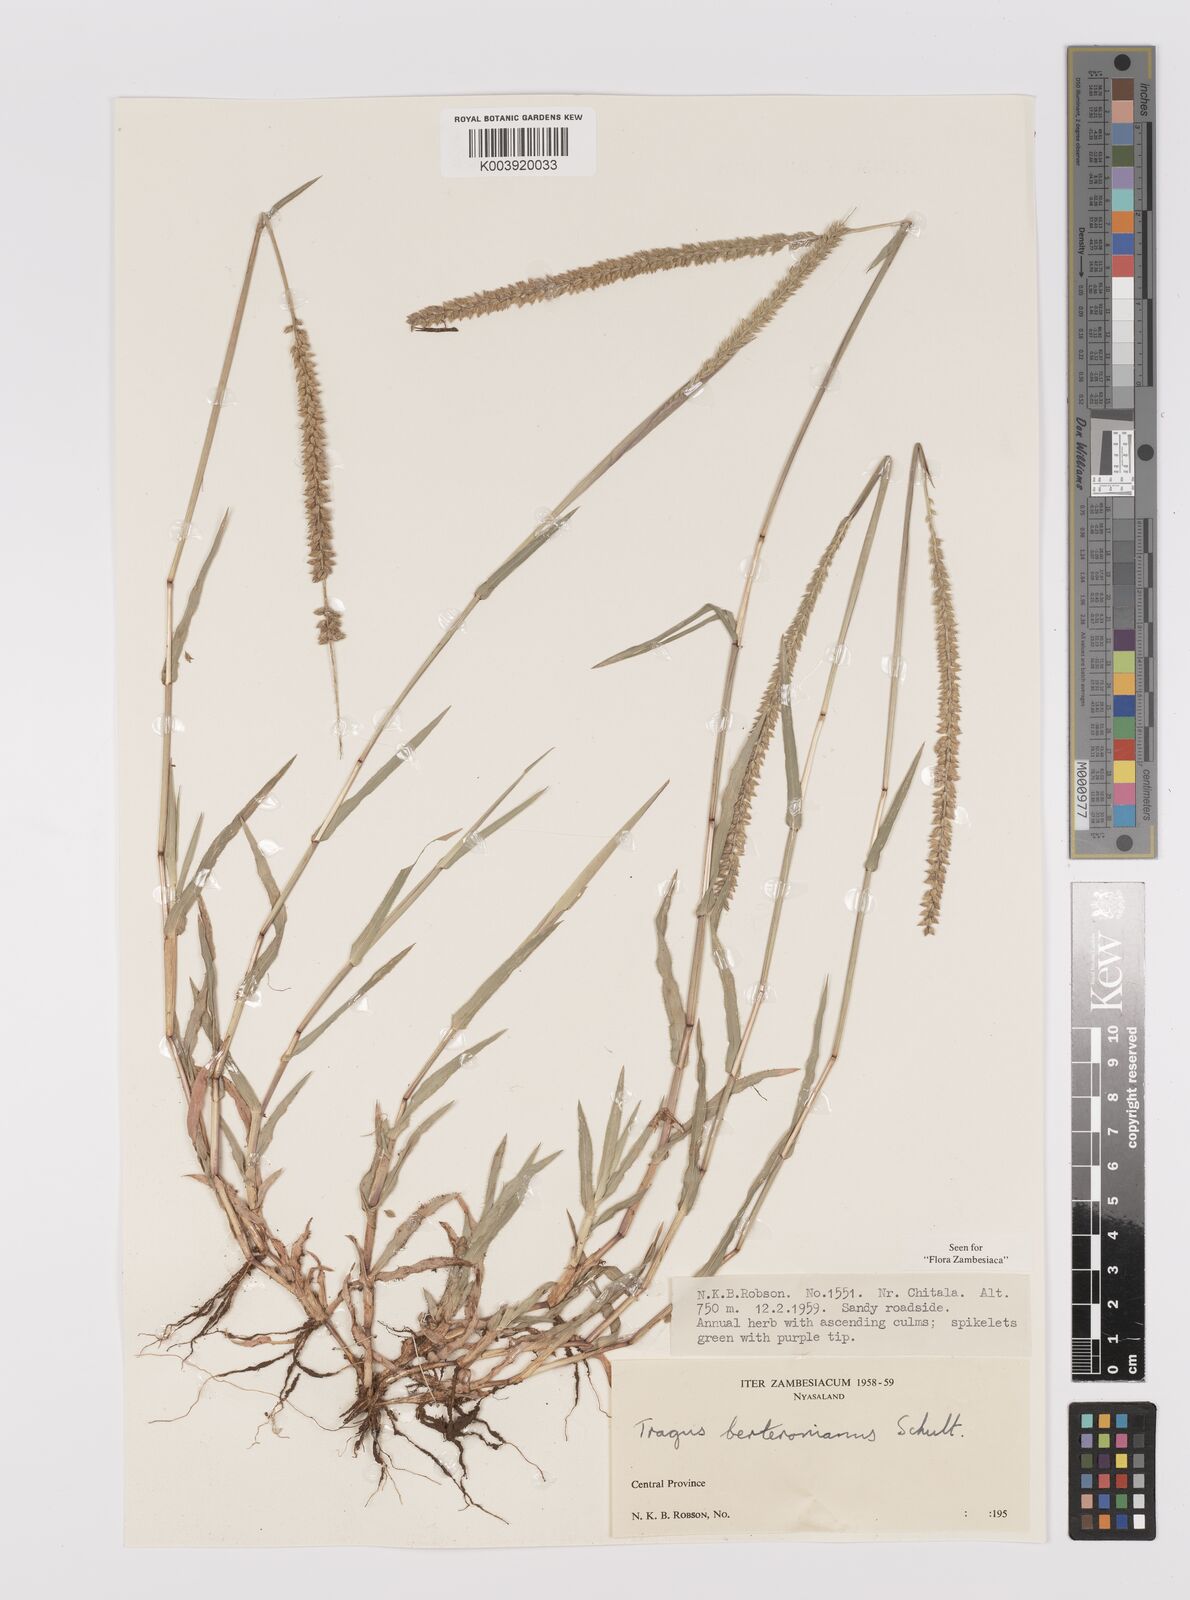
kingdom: Plantae
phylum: Tracheophyta
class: Liliopsida
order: Poales
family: Poaceae
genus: Tragus
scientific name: Tragus berteronianus
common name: African bur-grass
